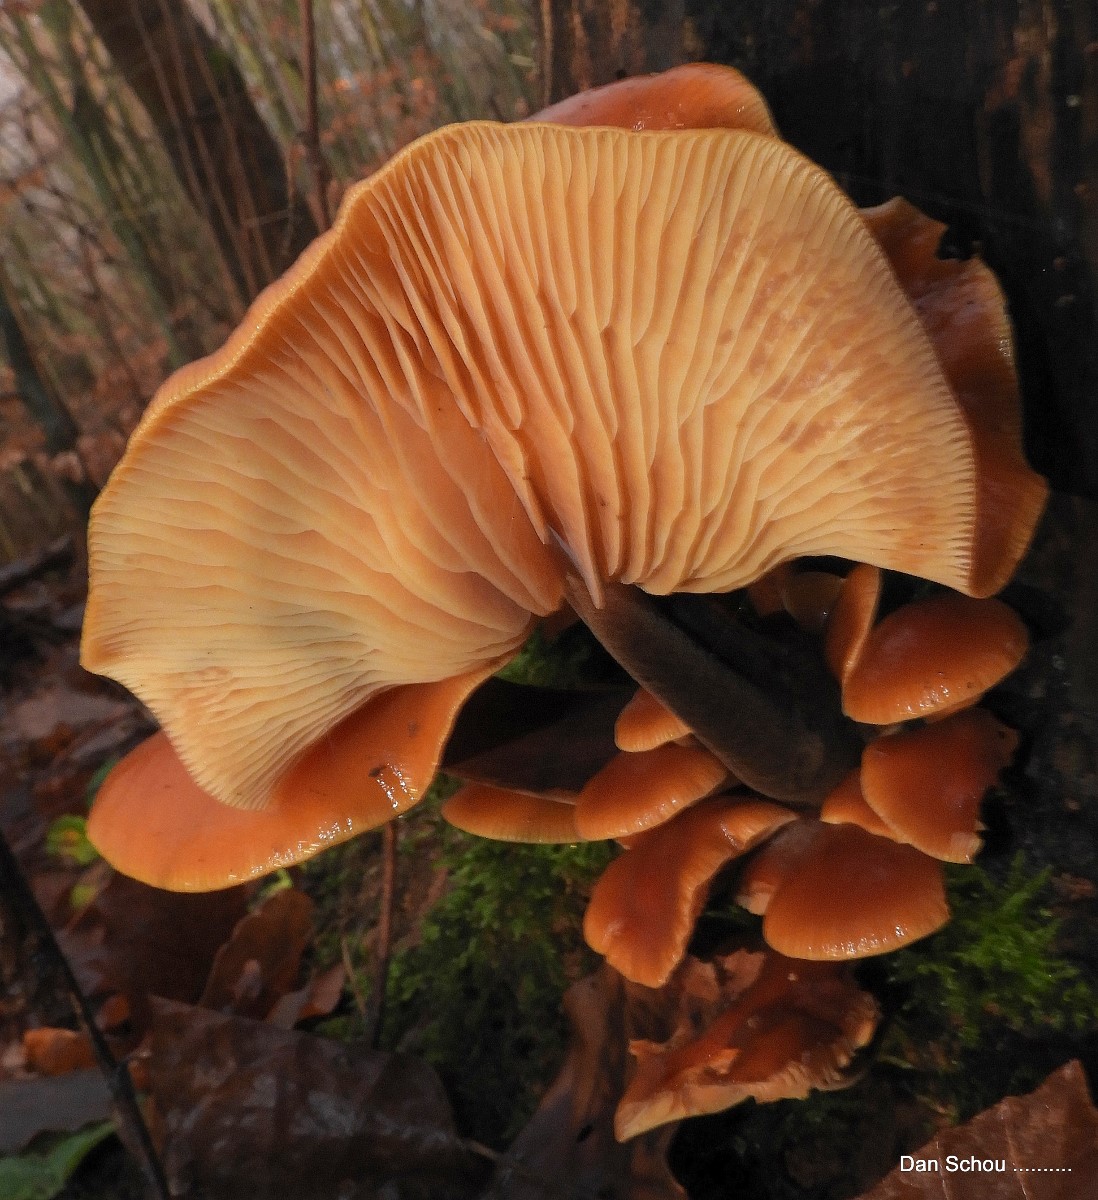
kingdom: Fungi
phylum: Basidiomycota
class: Agaricomycetes
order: Agaricales
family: Physalacriaceae
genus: Flammulina
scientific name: Flammulina
